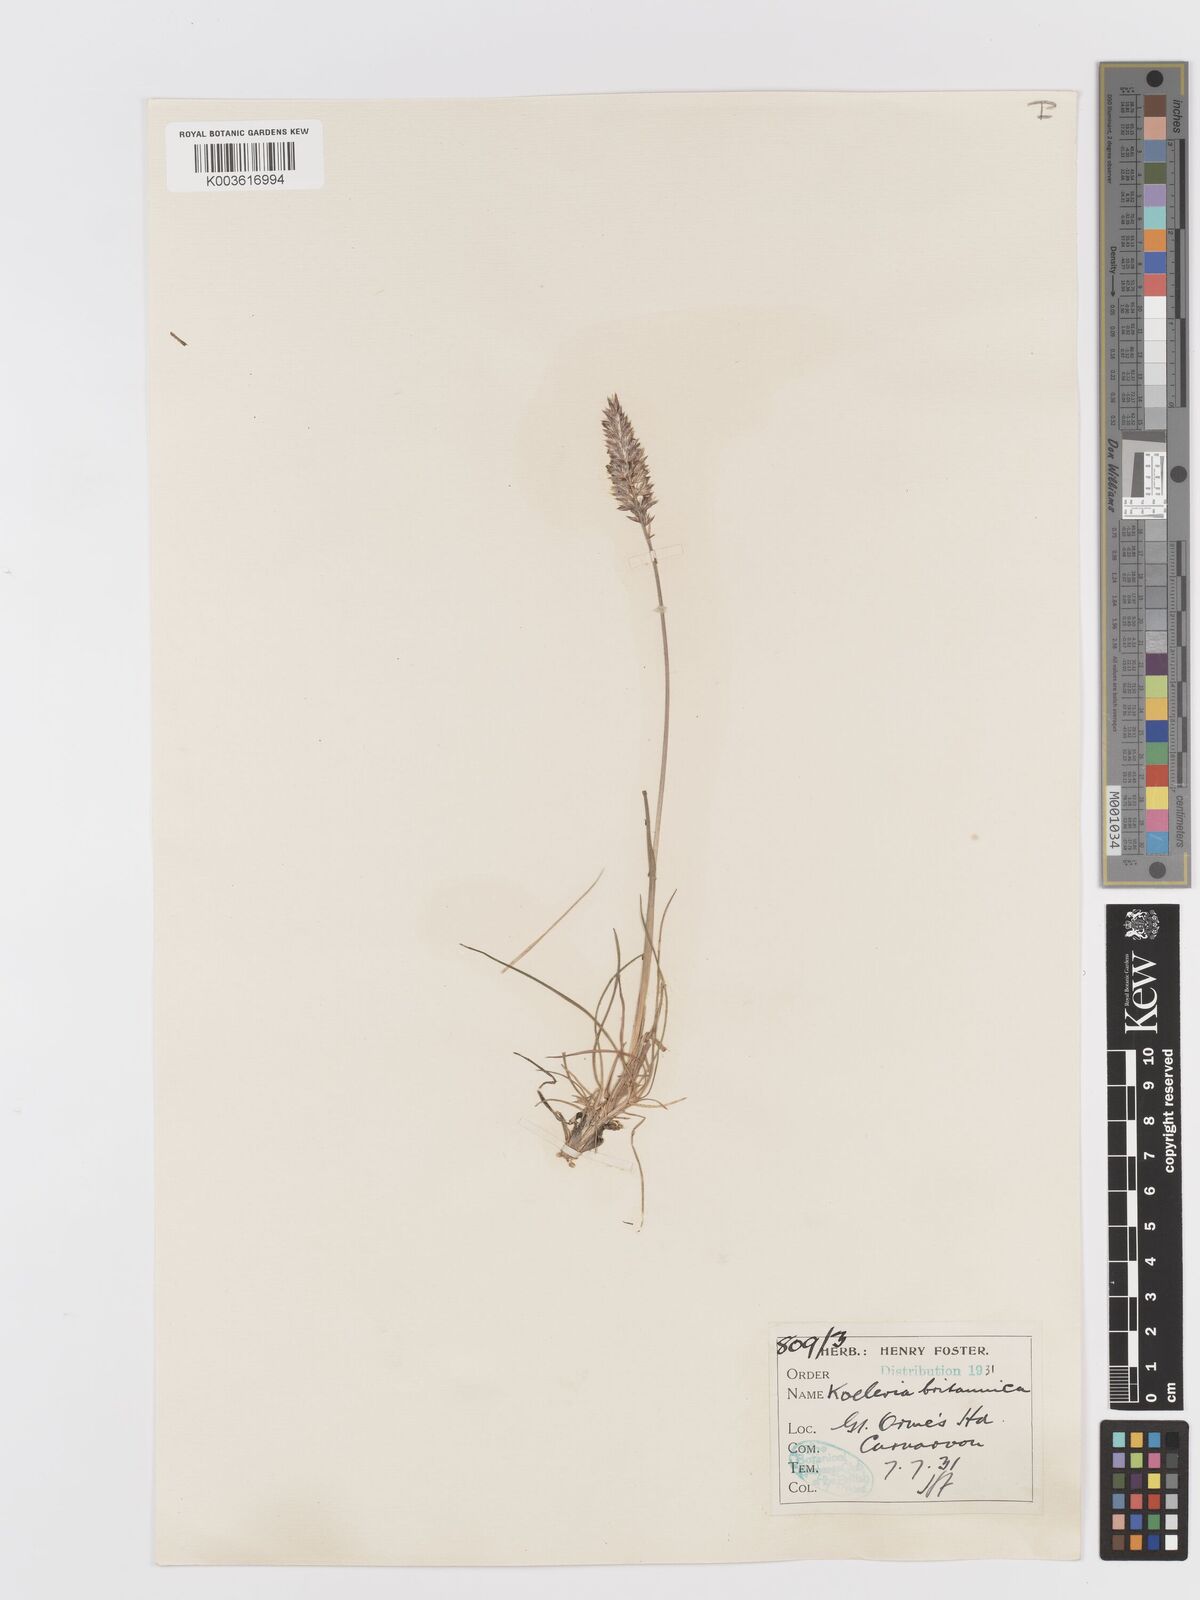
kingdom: Plantae
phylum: Tracheophyta
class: Liliopsida
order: Poales
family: Poaceae
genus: Koeleria
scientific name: Koeleria nitidula
